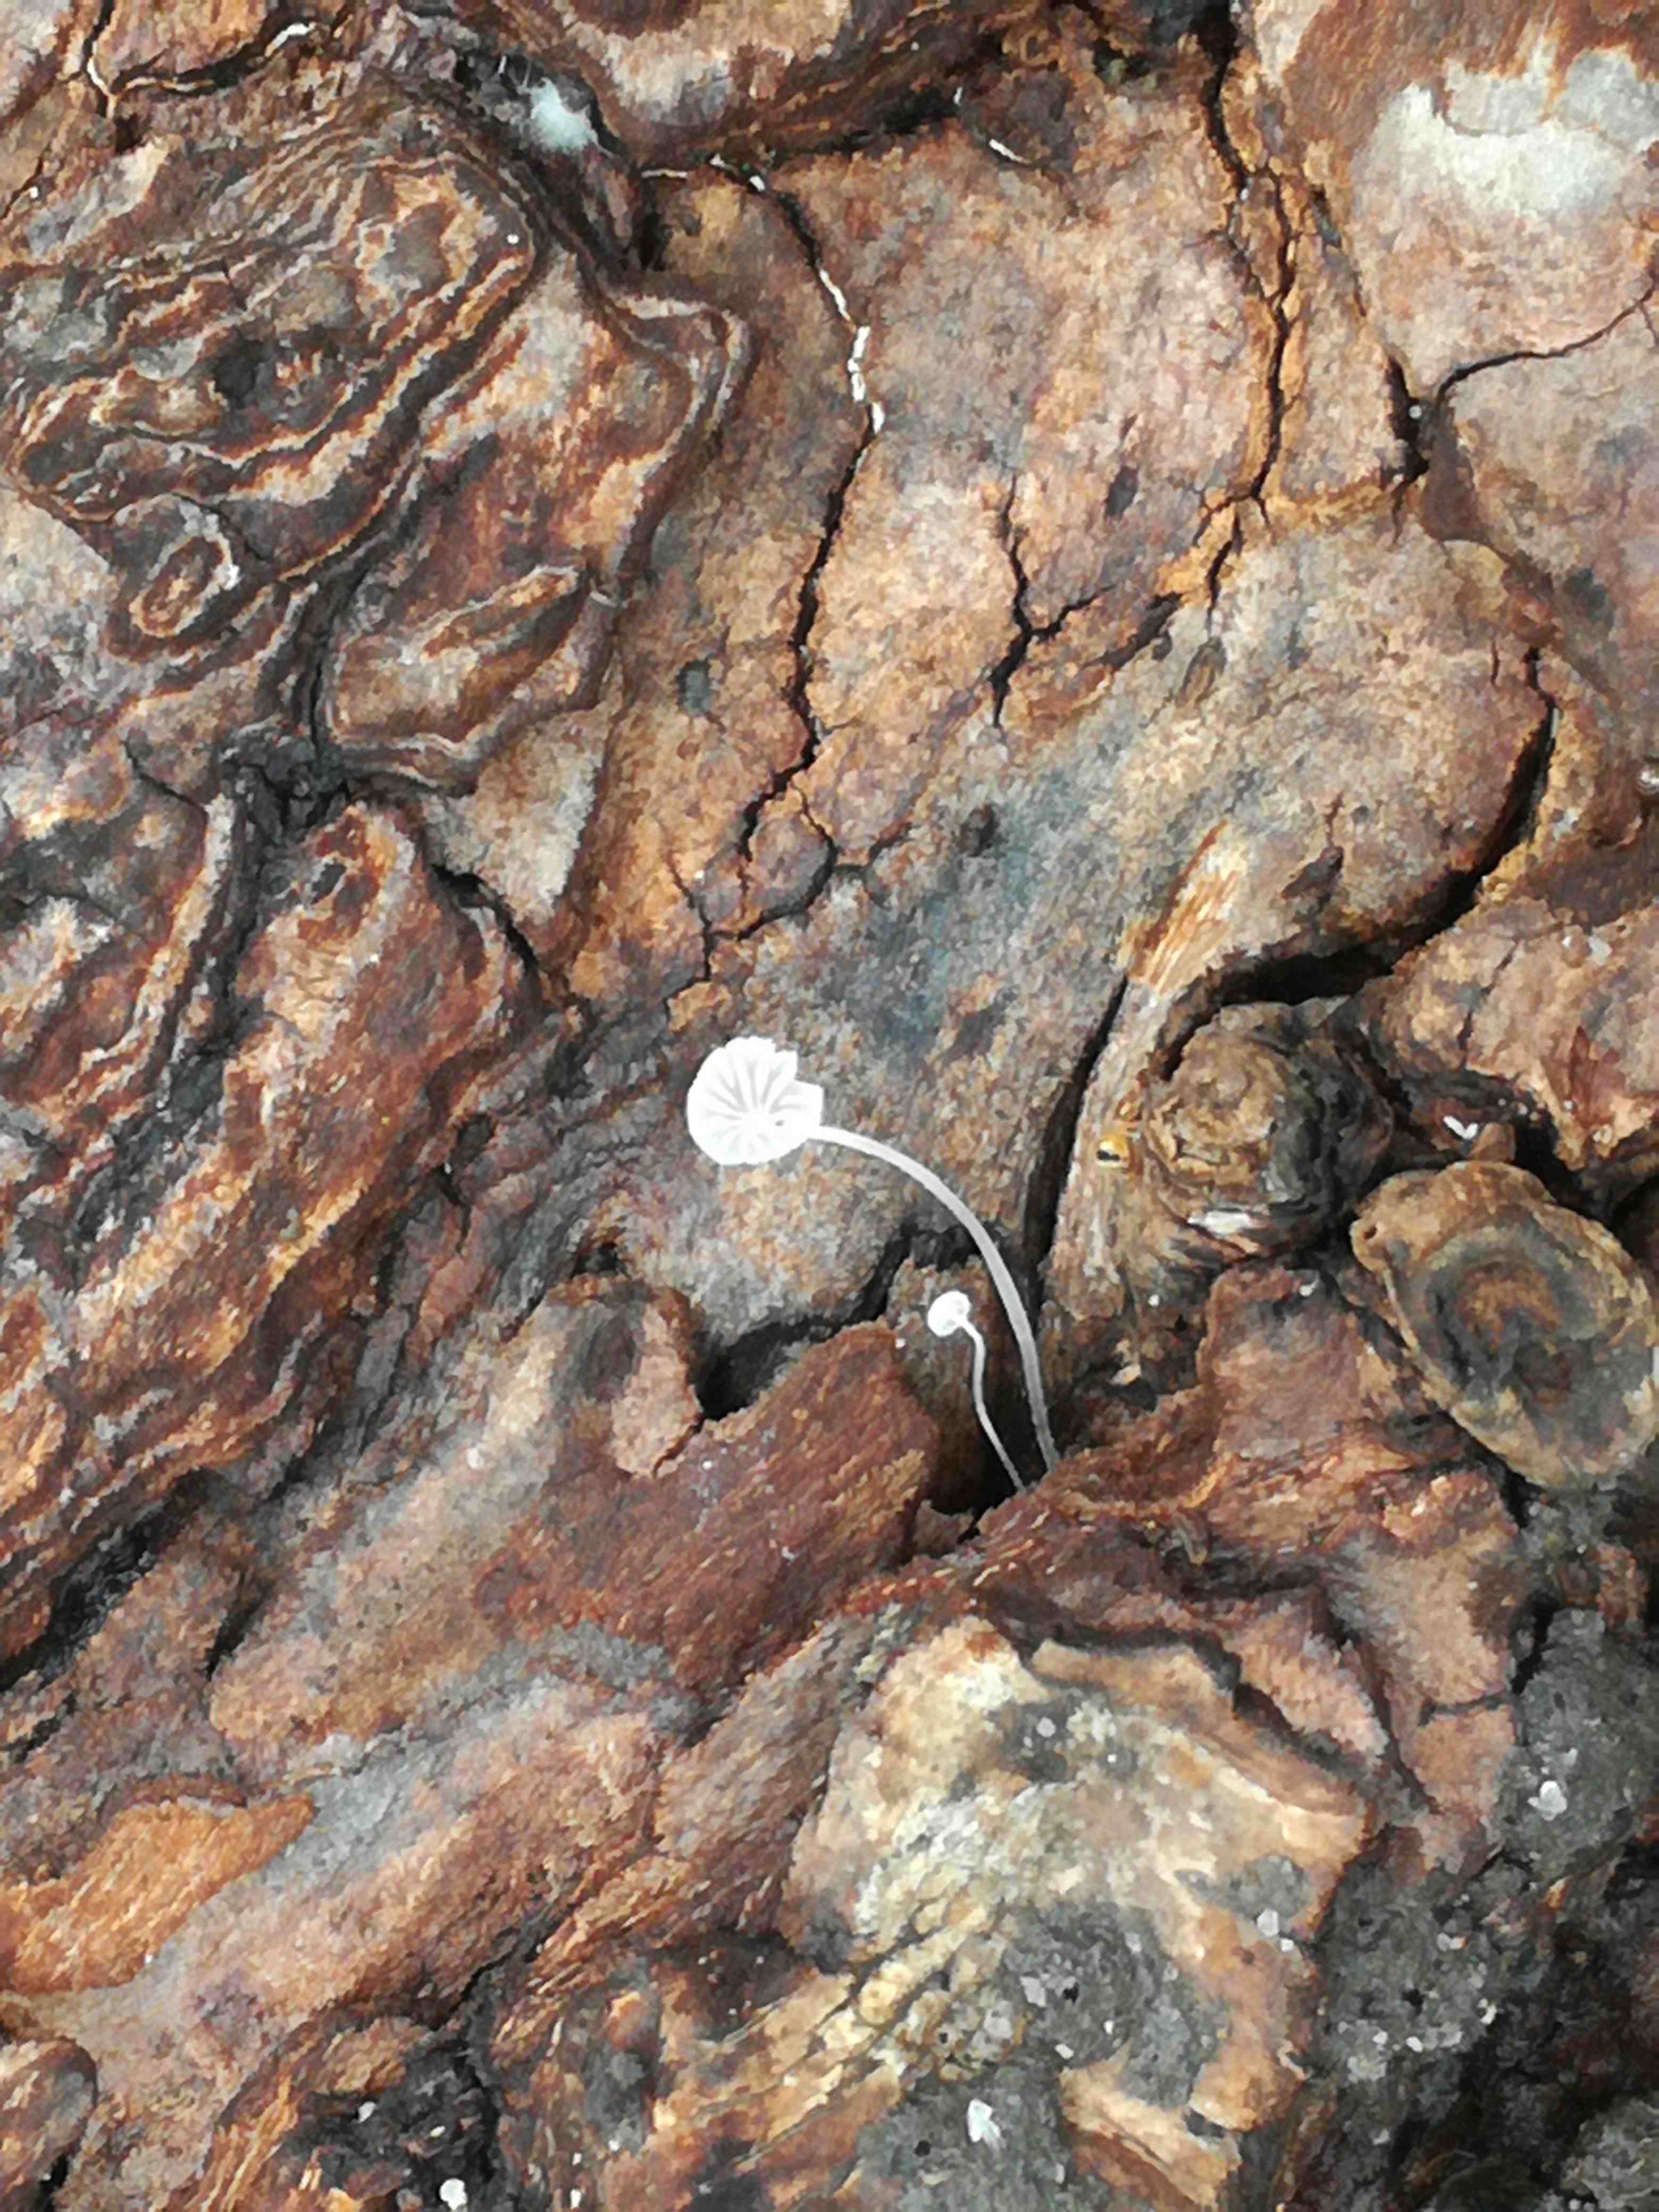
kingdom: Fungi
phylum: Basidiomycota
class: Agaricomycetes
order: Agaricales
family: Mycenaceae
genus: Mycena
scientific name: Mycena
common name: huesvamp
